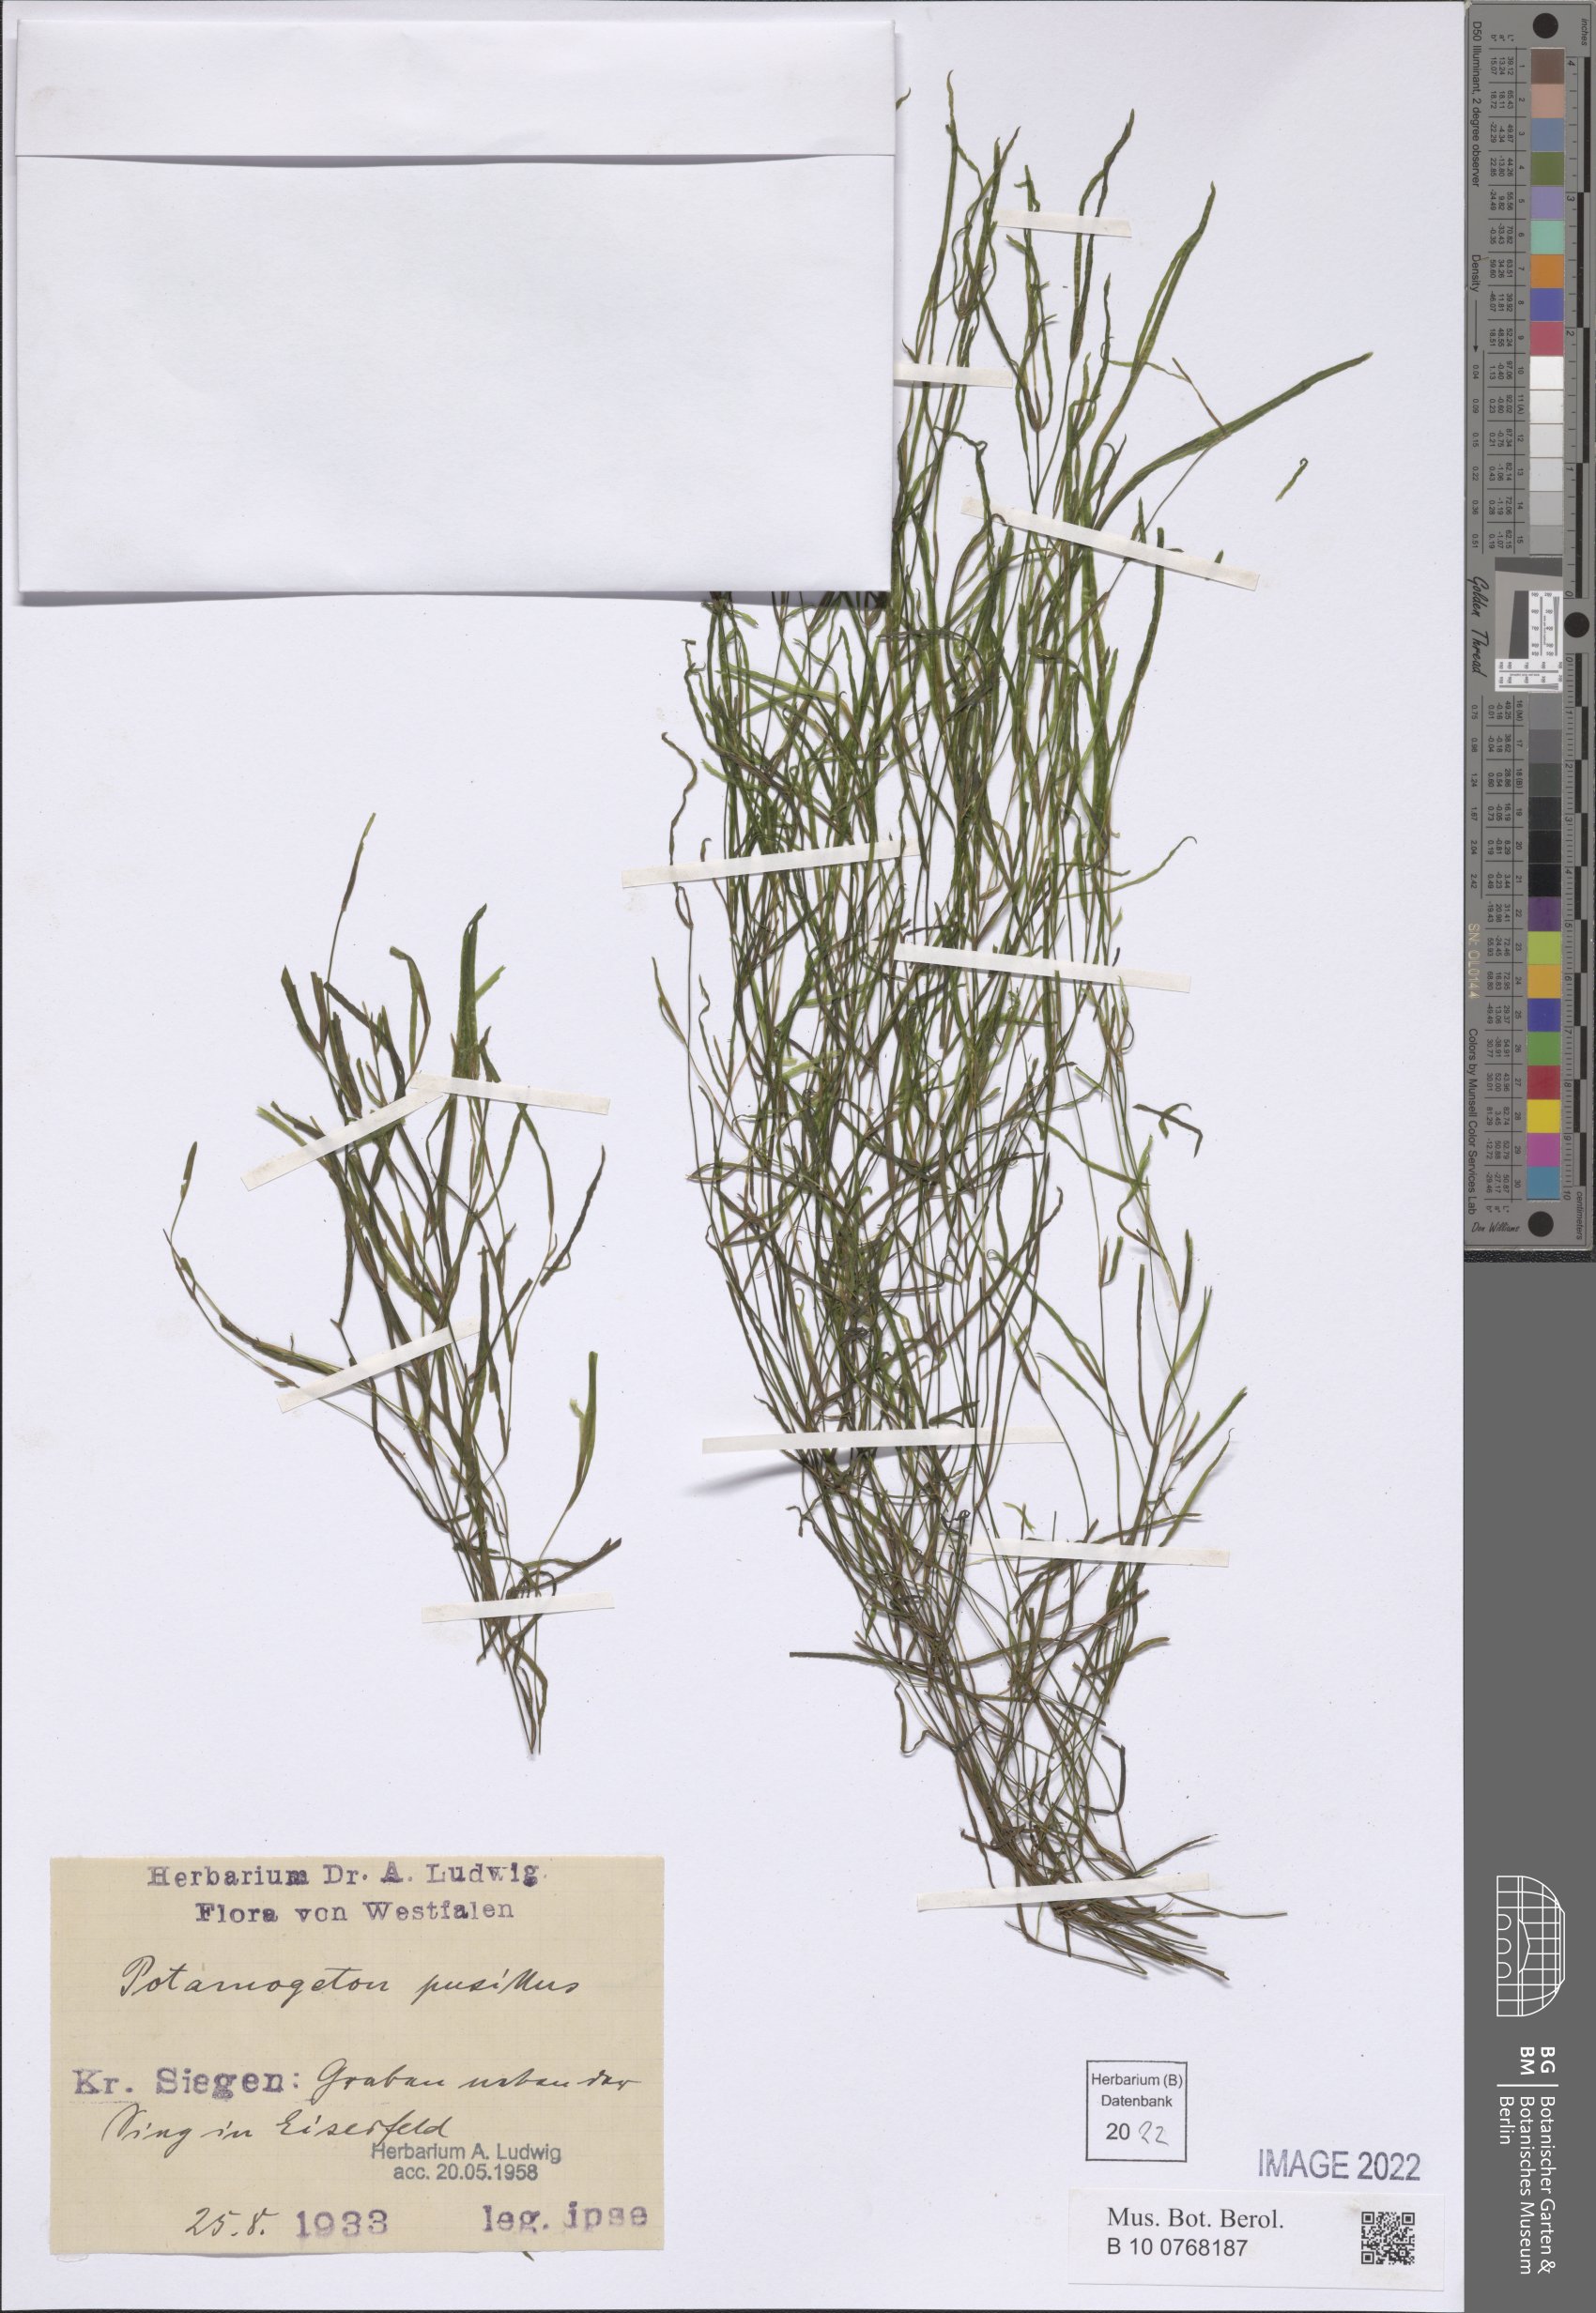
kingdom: Plantae
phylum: Tracheophyta
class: Liliopsida
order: Alismatales
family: Potamogetonaceae
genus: Potamogeton
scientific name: Potamogeton pusillus
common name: Lesser pondweed
